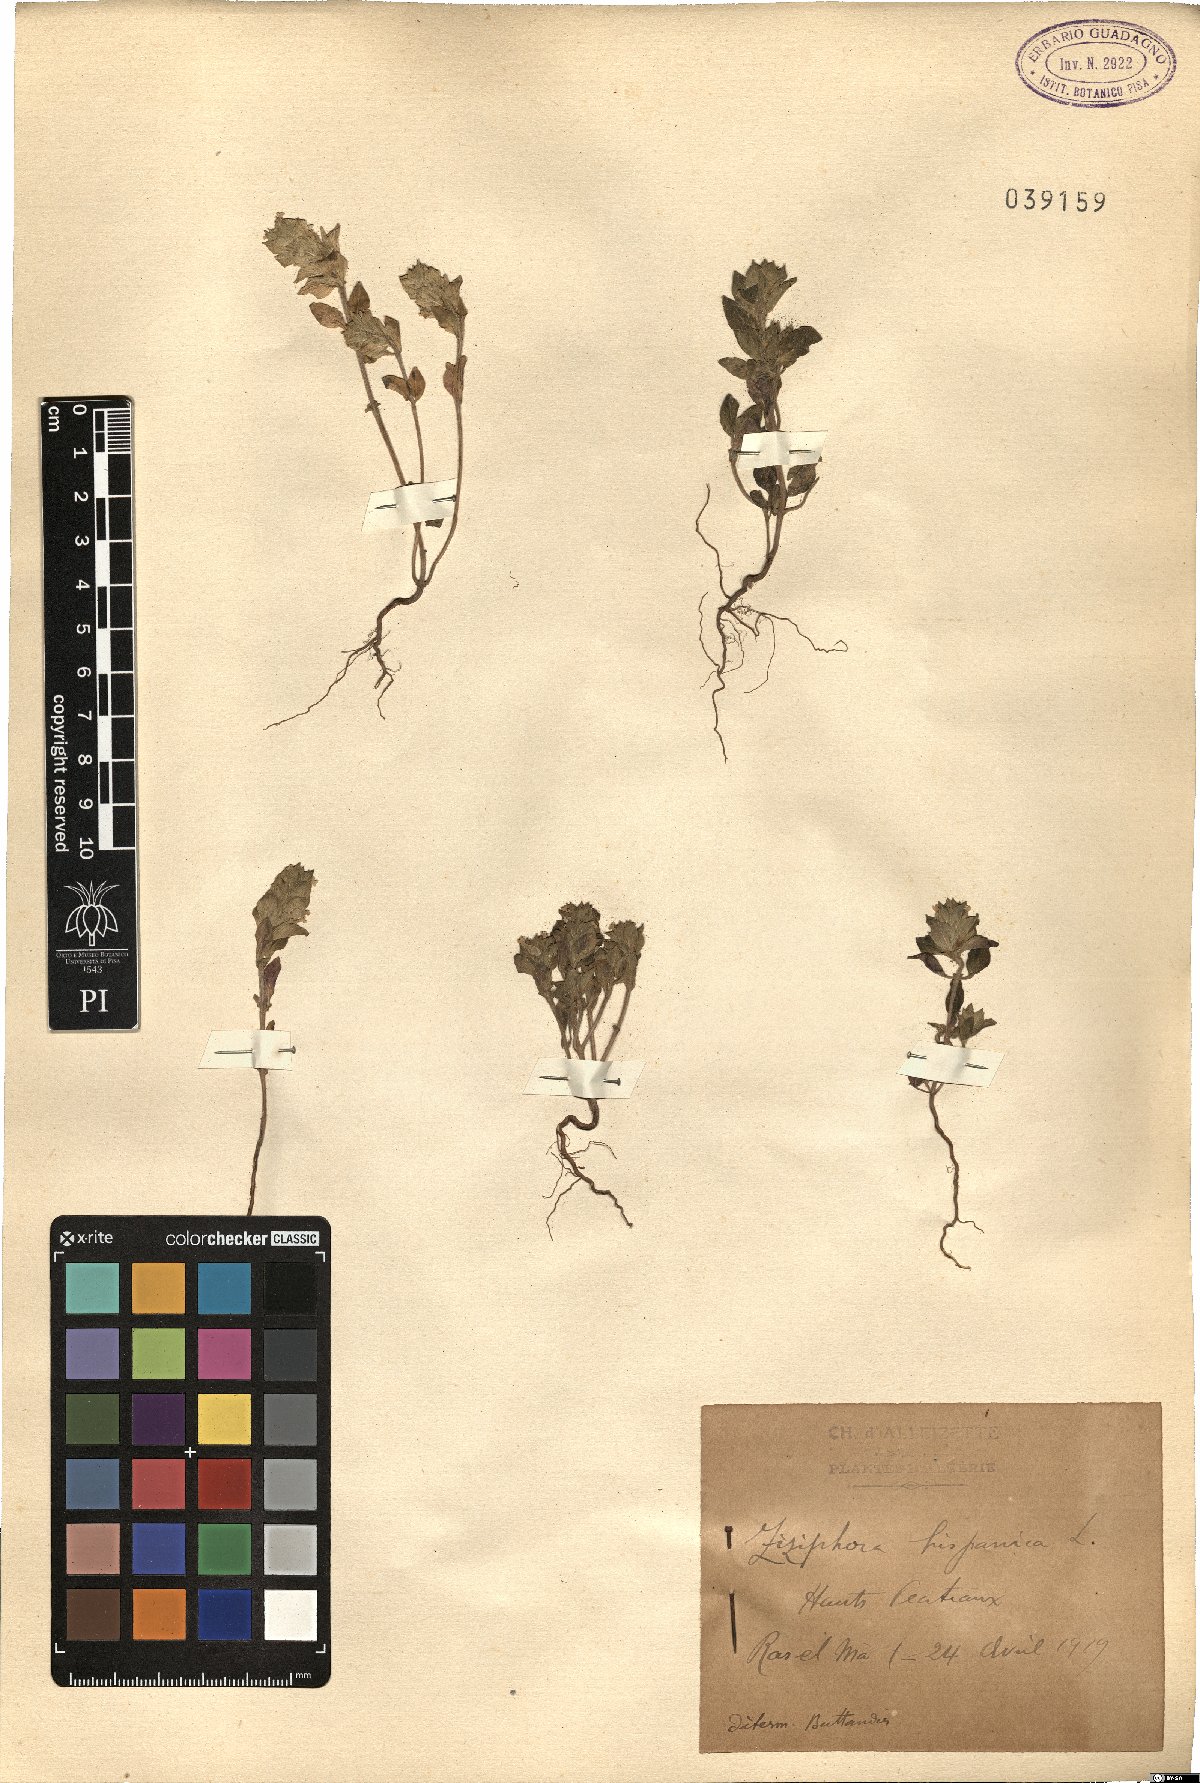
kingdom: Plantae
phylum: Tracheophyta
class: Magnoliopsida
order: Lamiales
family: Lamiaceae
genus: Ziziphora
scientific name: Ziziphora hispanica
